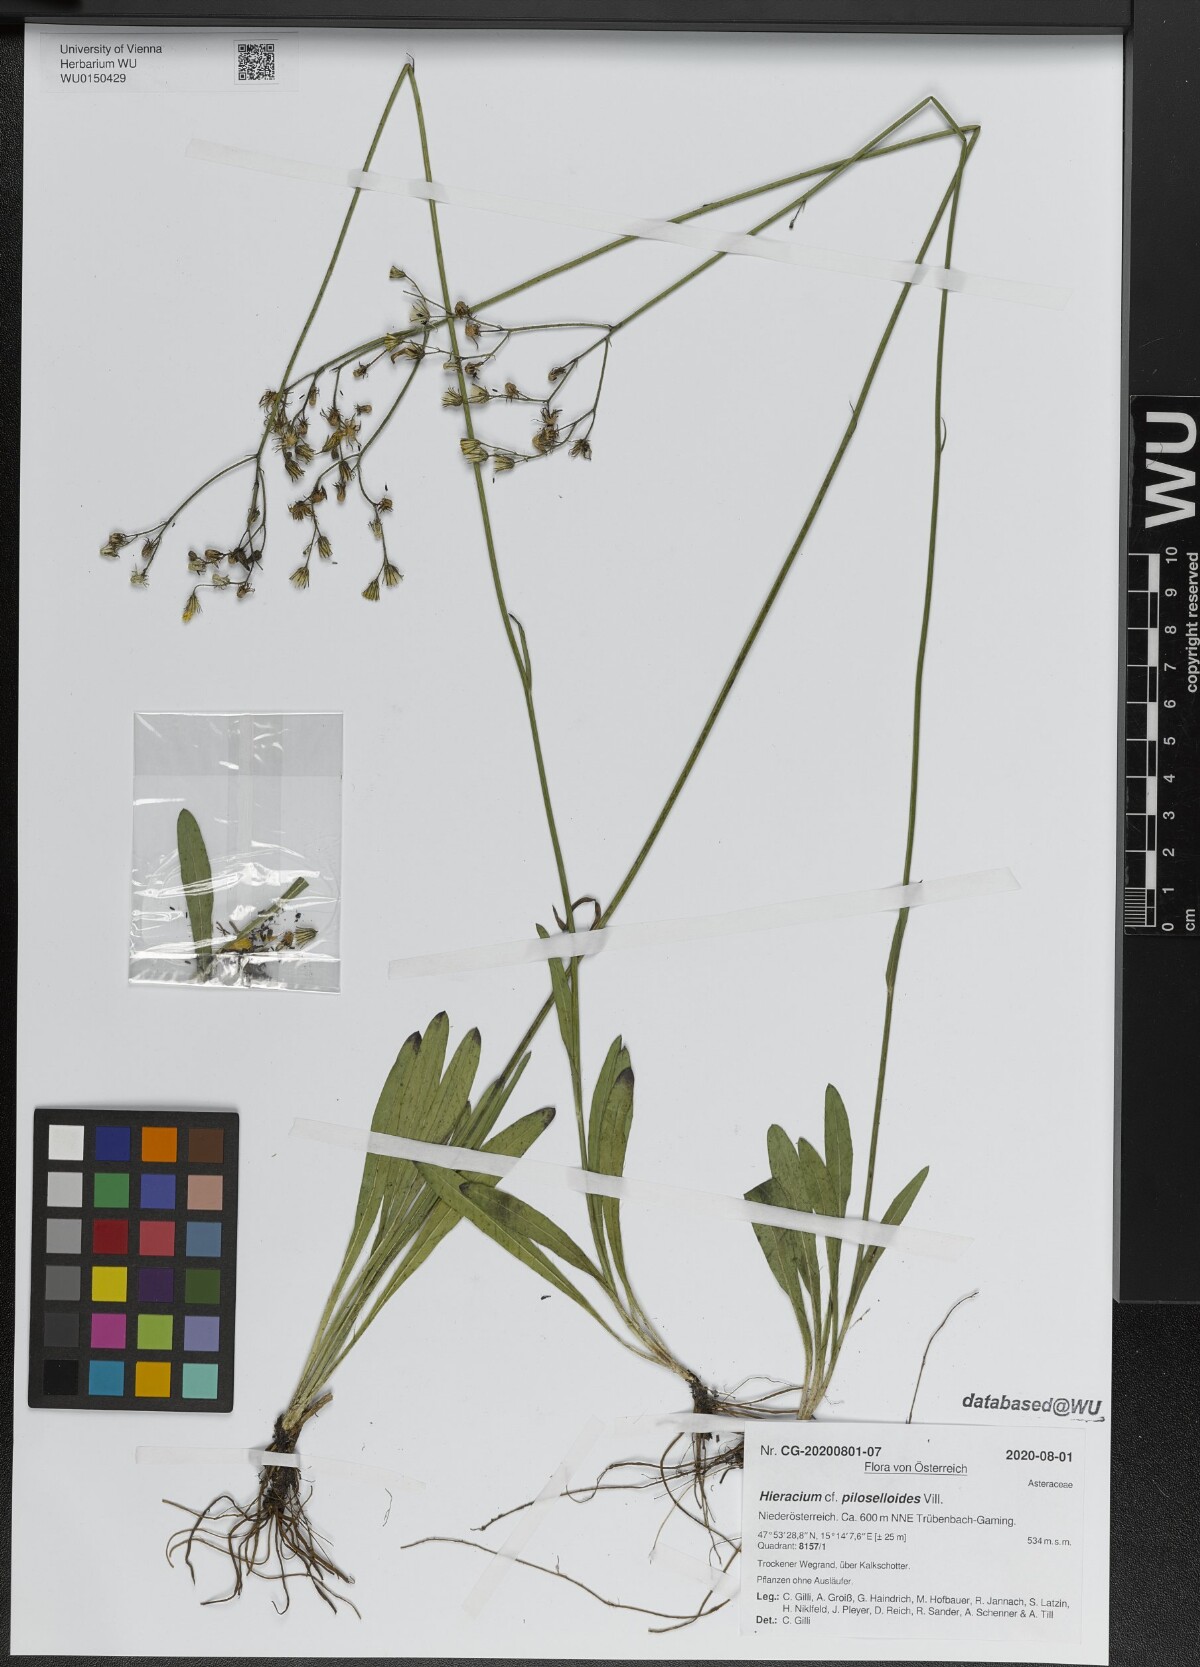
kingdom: Plantae
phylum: Tracheophyta
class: Magnoliopsida
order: Asterales
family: Asteraceae
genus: Pilosella
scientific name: Pilosella piloselloides
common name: Glaucous king-devil
